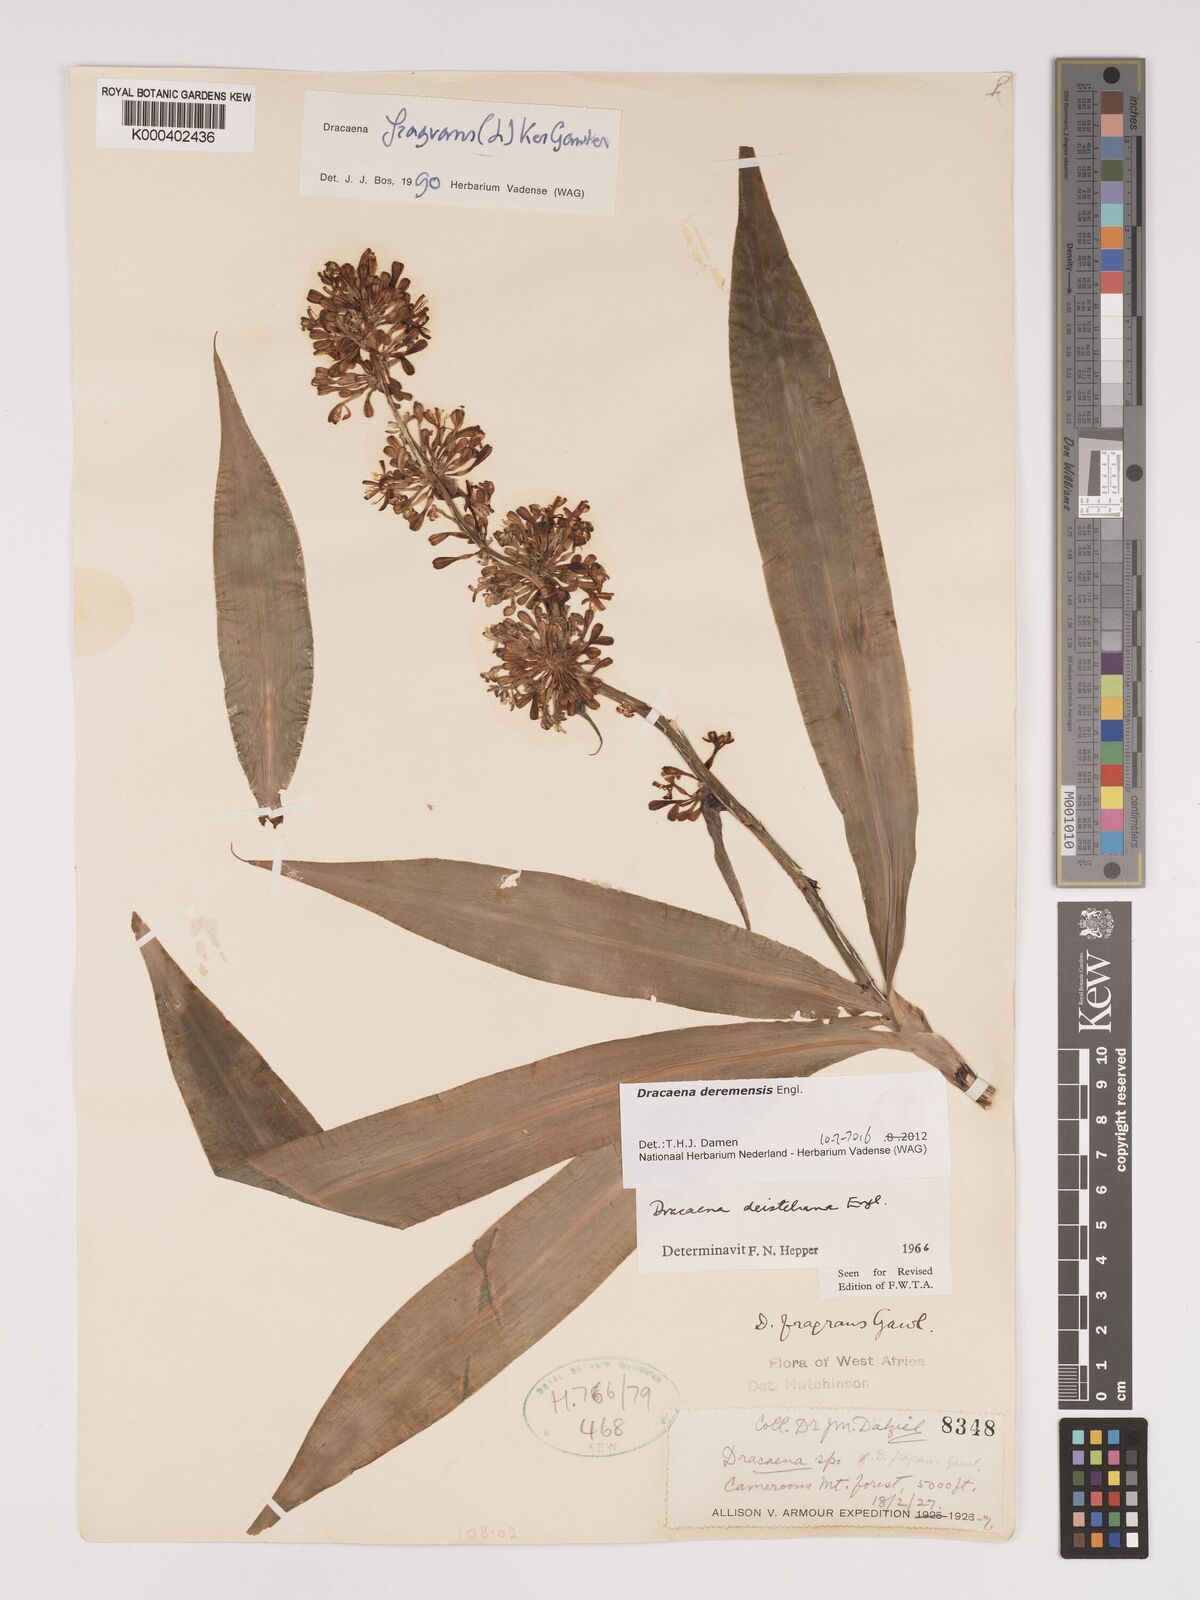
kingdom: Plantae
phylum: Tracheophyta
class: Liliopsida
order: Asparagales
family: Asparagaceae
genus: Dracaena
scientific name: Dracaena fragrans
